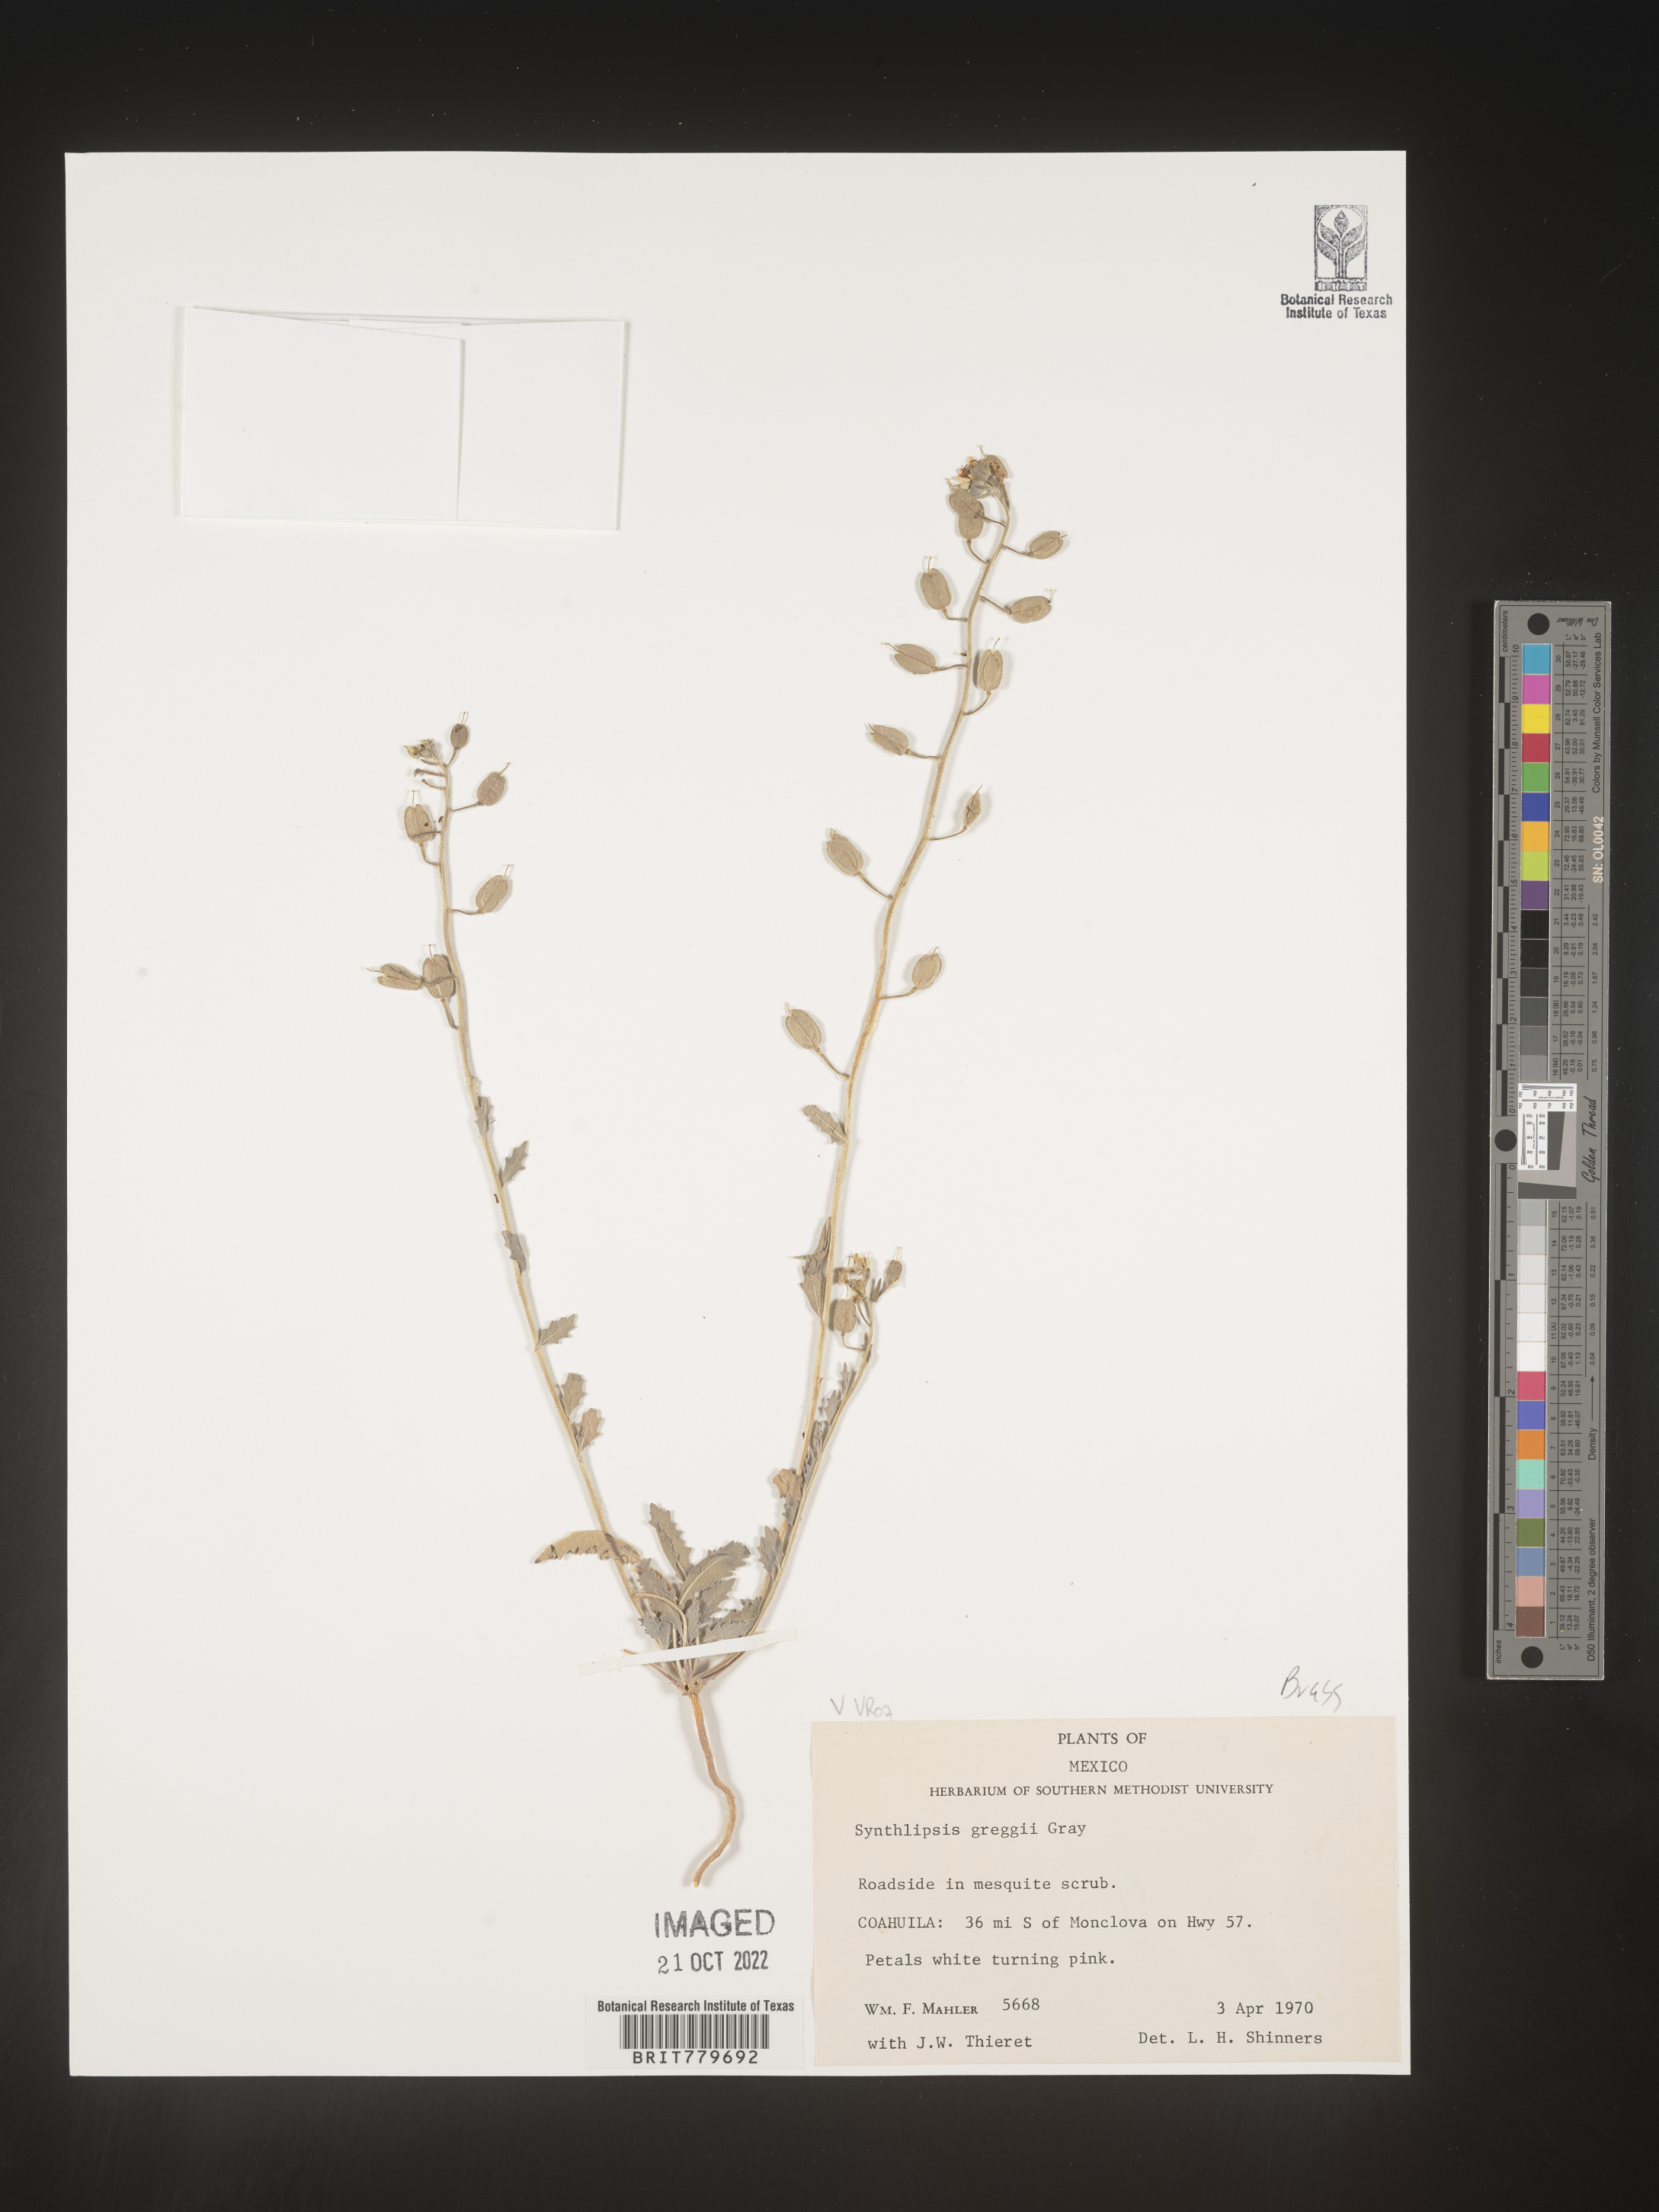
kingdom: Plantae
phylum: Tracheophyta
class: Magnoliopsida
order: Brassicales
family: Brassicaceae
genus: Synthlipsis
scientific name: Synthlipsis
